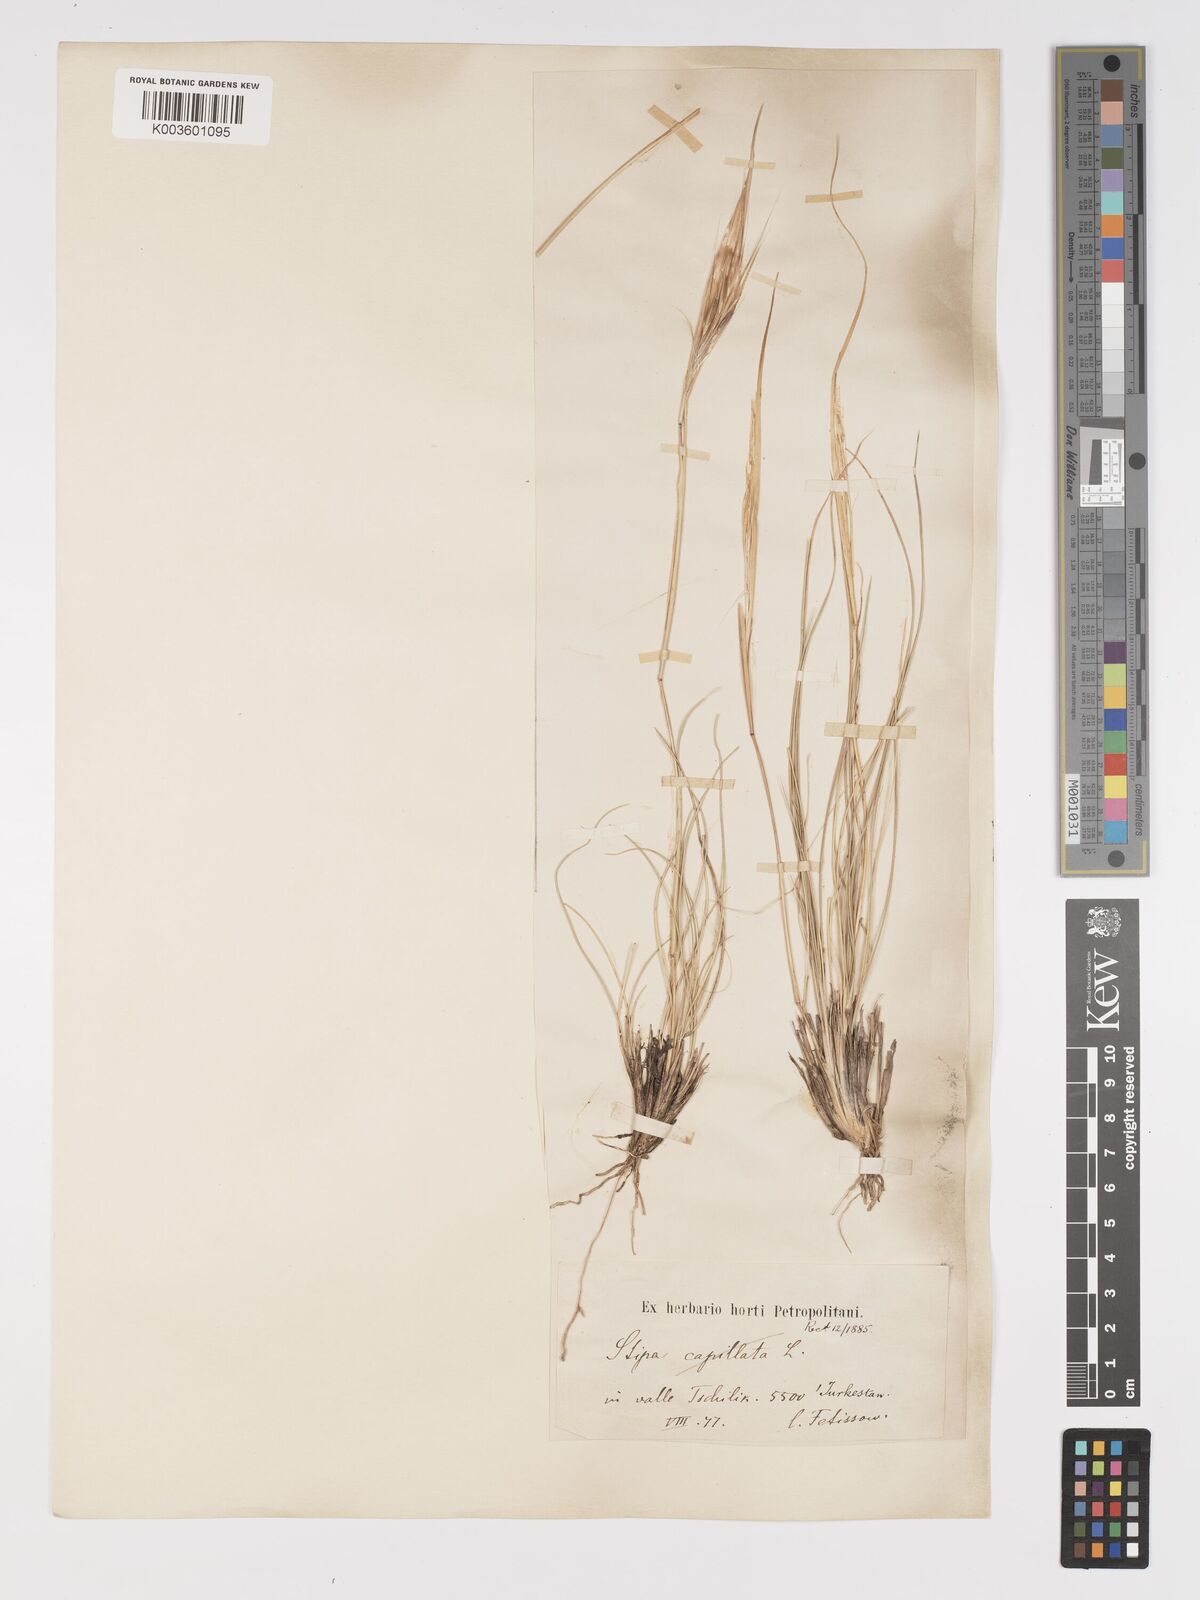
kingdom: Plantae
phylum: Tracheophyta
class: Liliopsida
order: Poales
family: Poaceae
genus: Stipa
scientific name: Stipa orientalis
